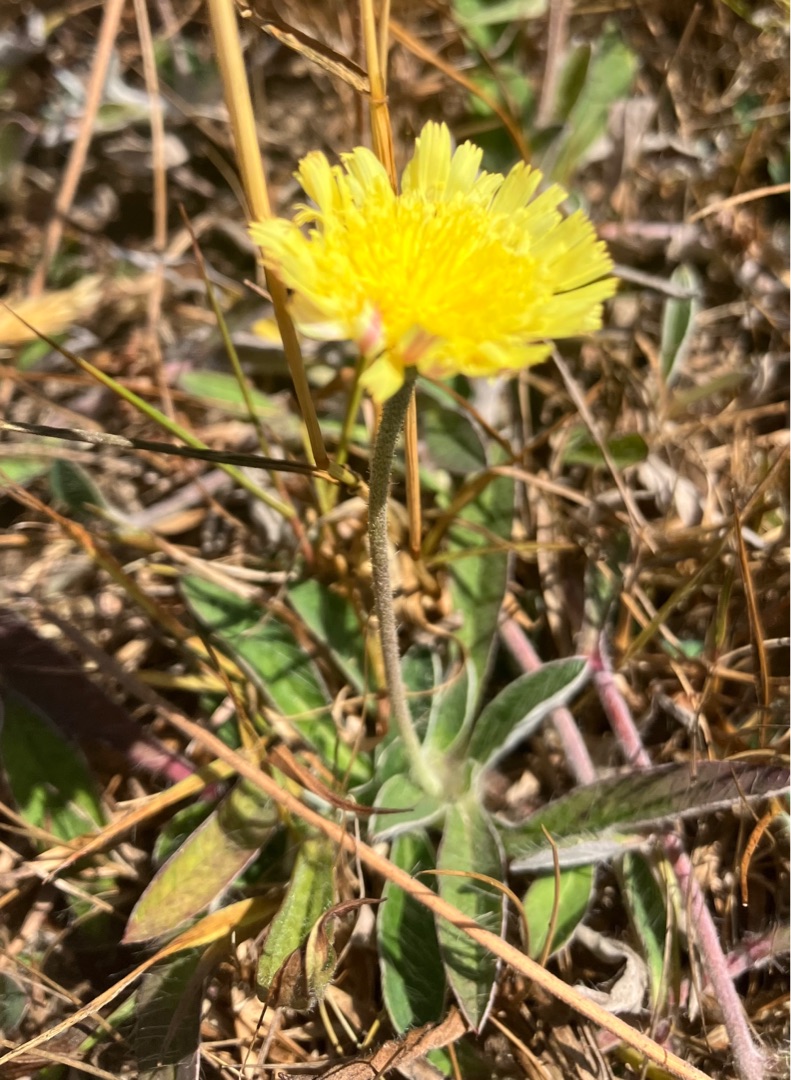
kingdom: Plantae
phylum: Tracheophyta
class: Magnoliopsida
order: Asterales
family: Asteraceae
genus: Pilosella
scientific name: Pilosella officinarum
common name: Håret høgeurt
